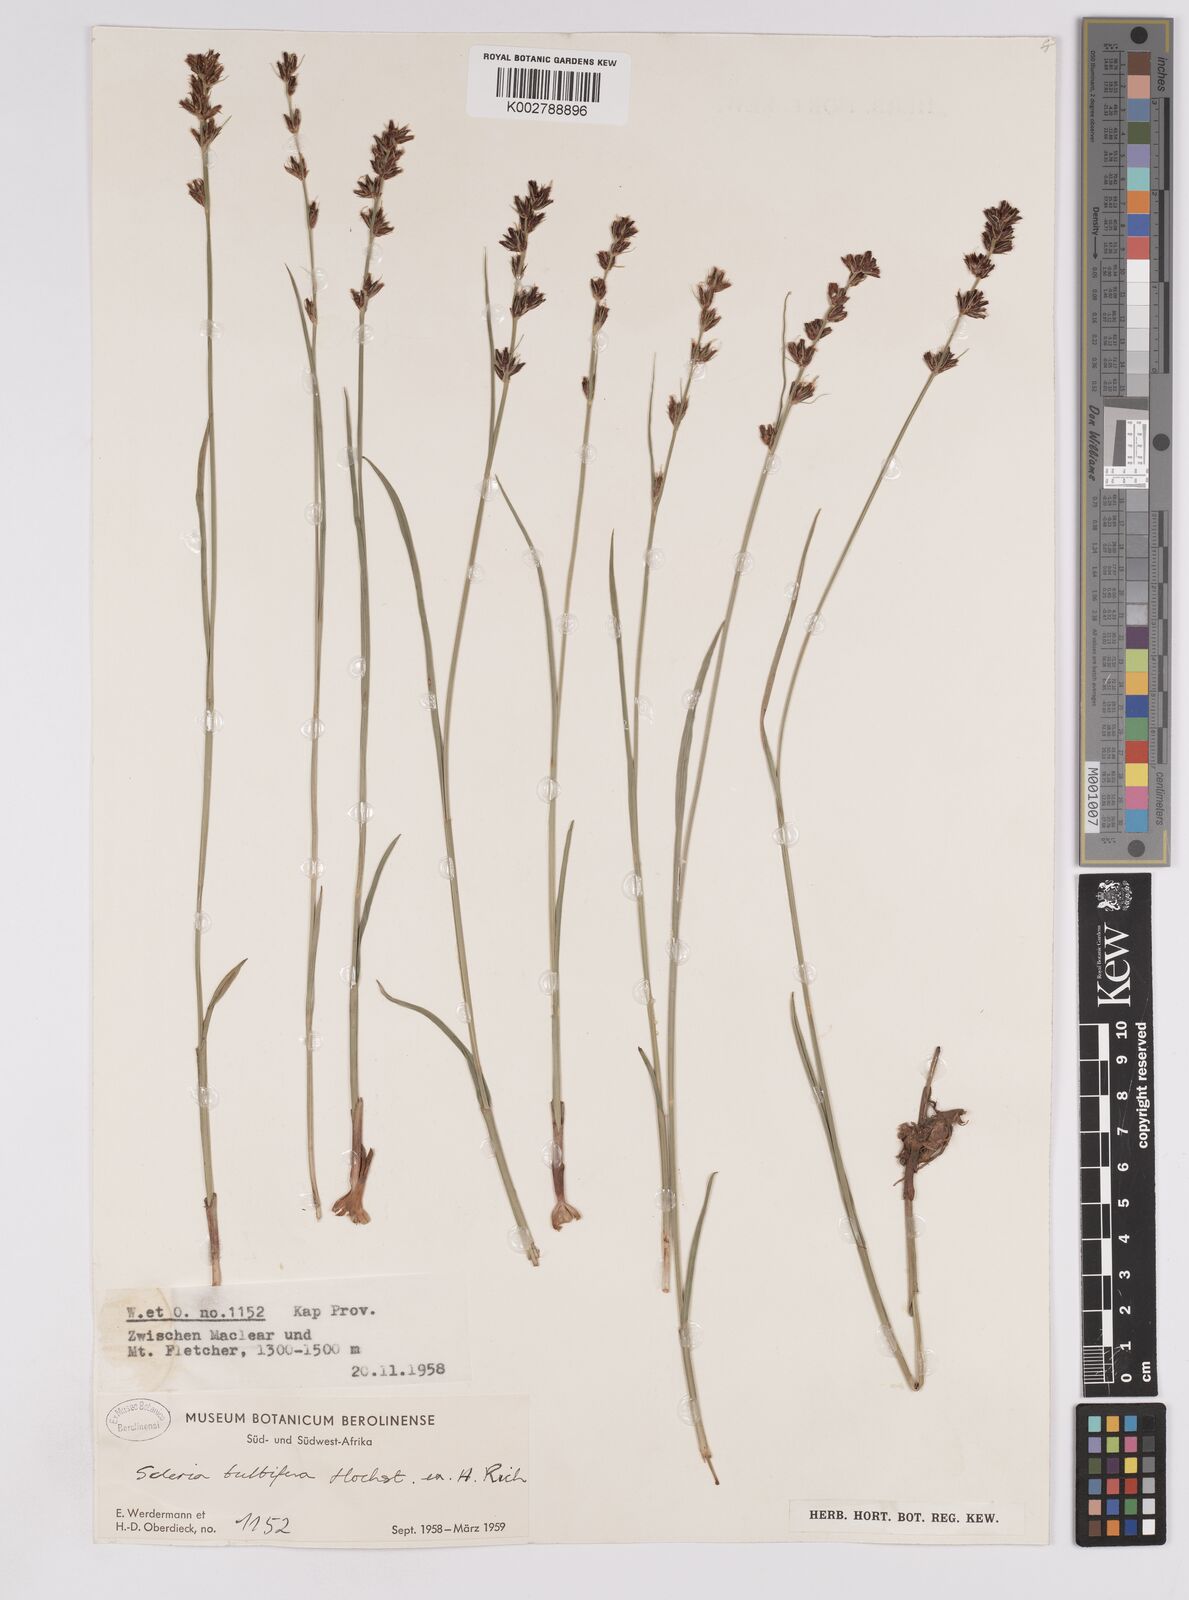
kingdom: Plantae
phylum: Tracheophyta
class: Liliopsida
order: Poales
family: Cyperaceae
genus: Scleria
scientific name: Scleria bulbifera
